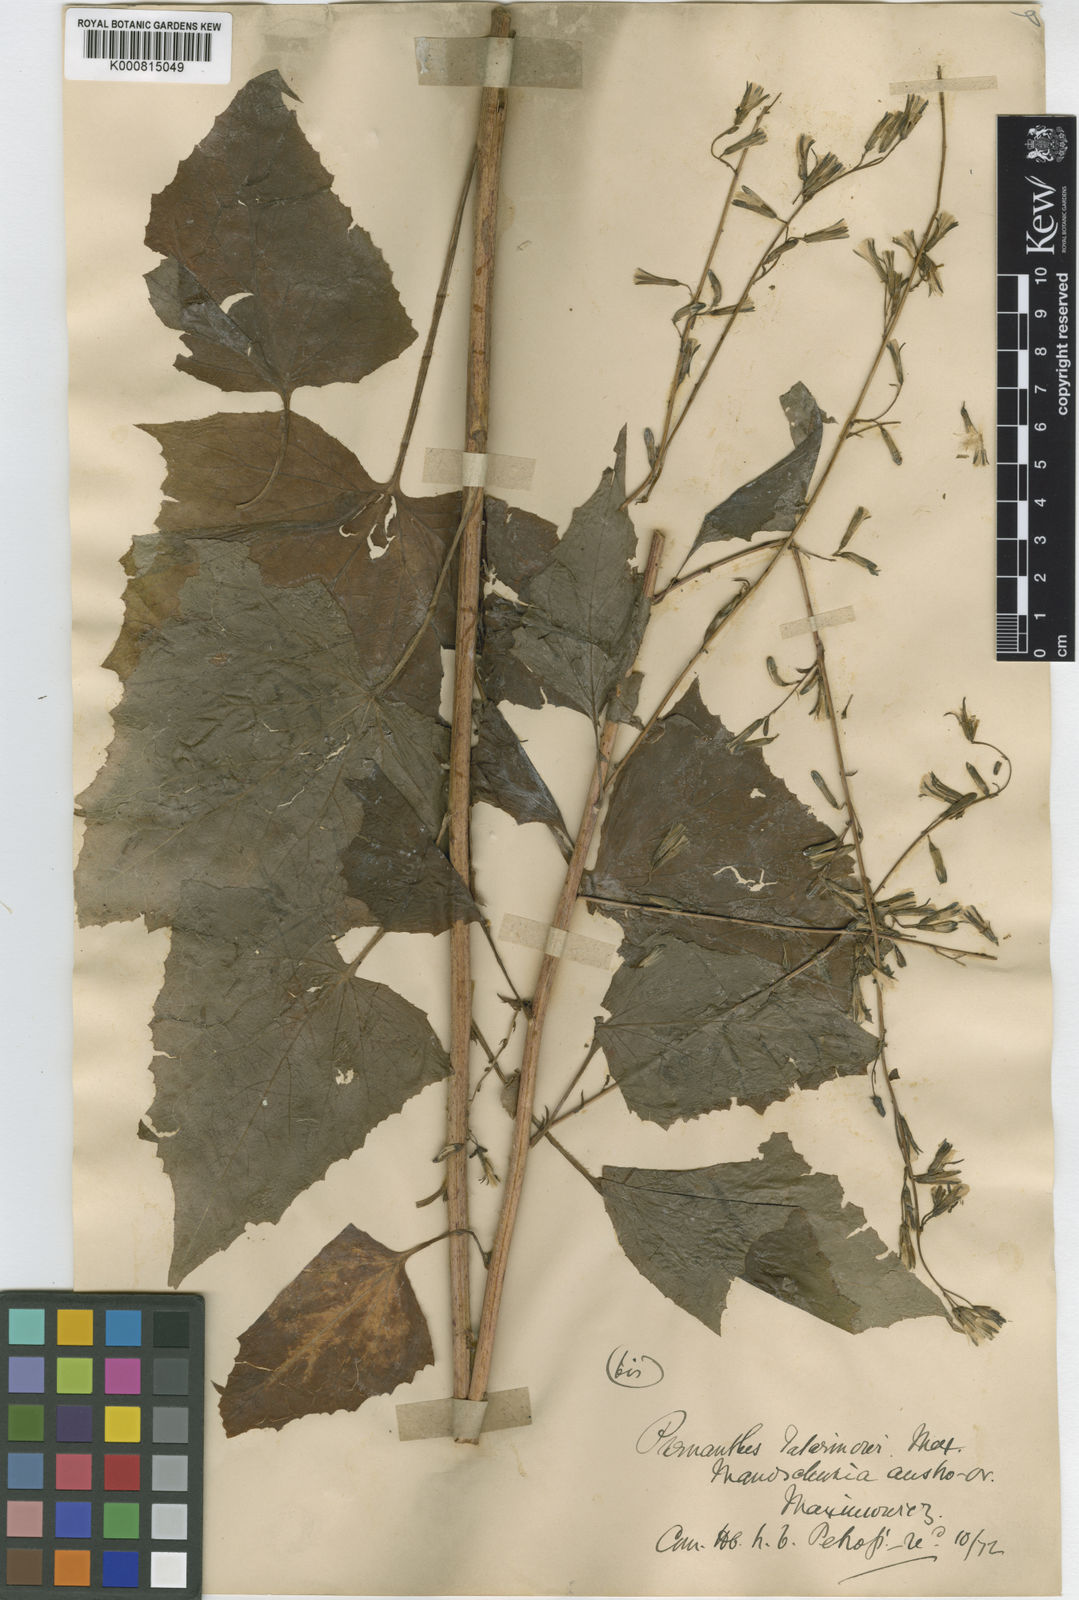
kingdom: Plantae
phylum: Tracheophyta
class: Magnoliopsida
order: Asterales
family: Asteraceae
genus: Nabalus
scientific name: Nabalus tatarinowii
